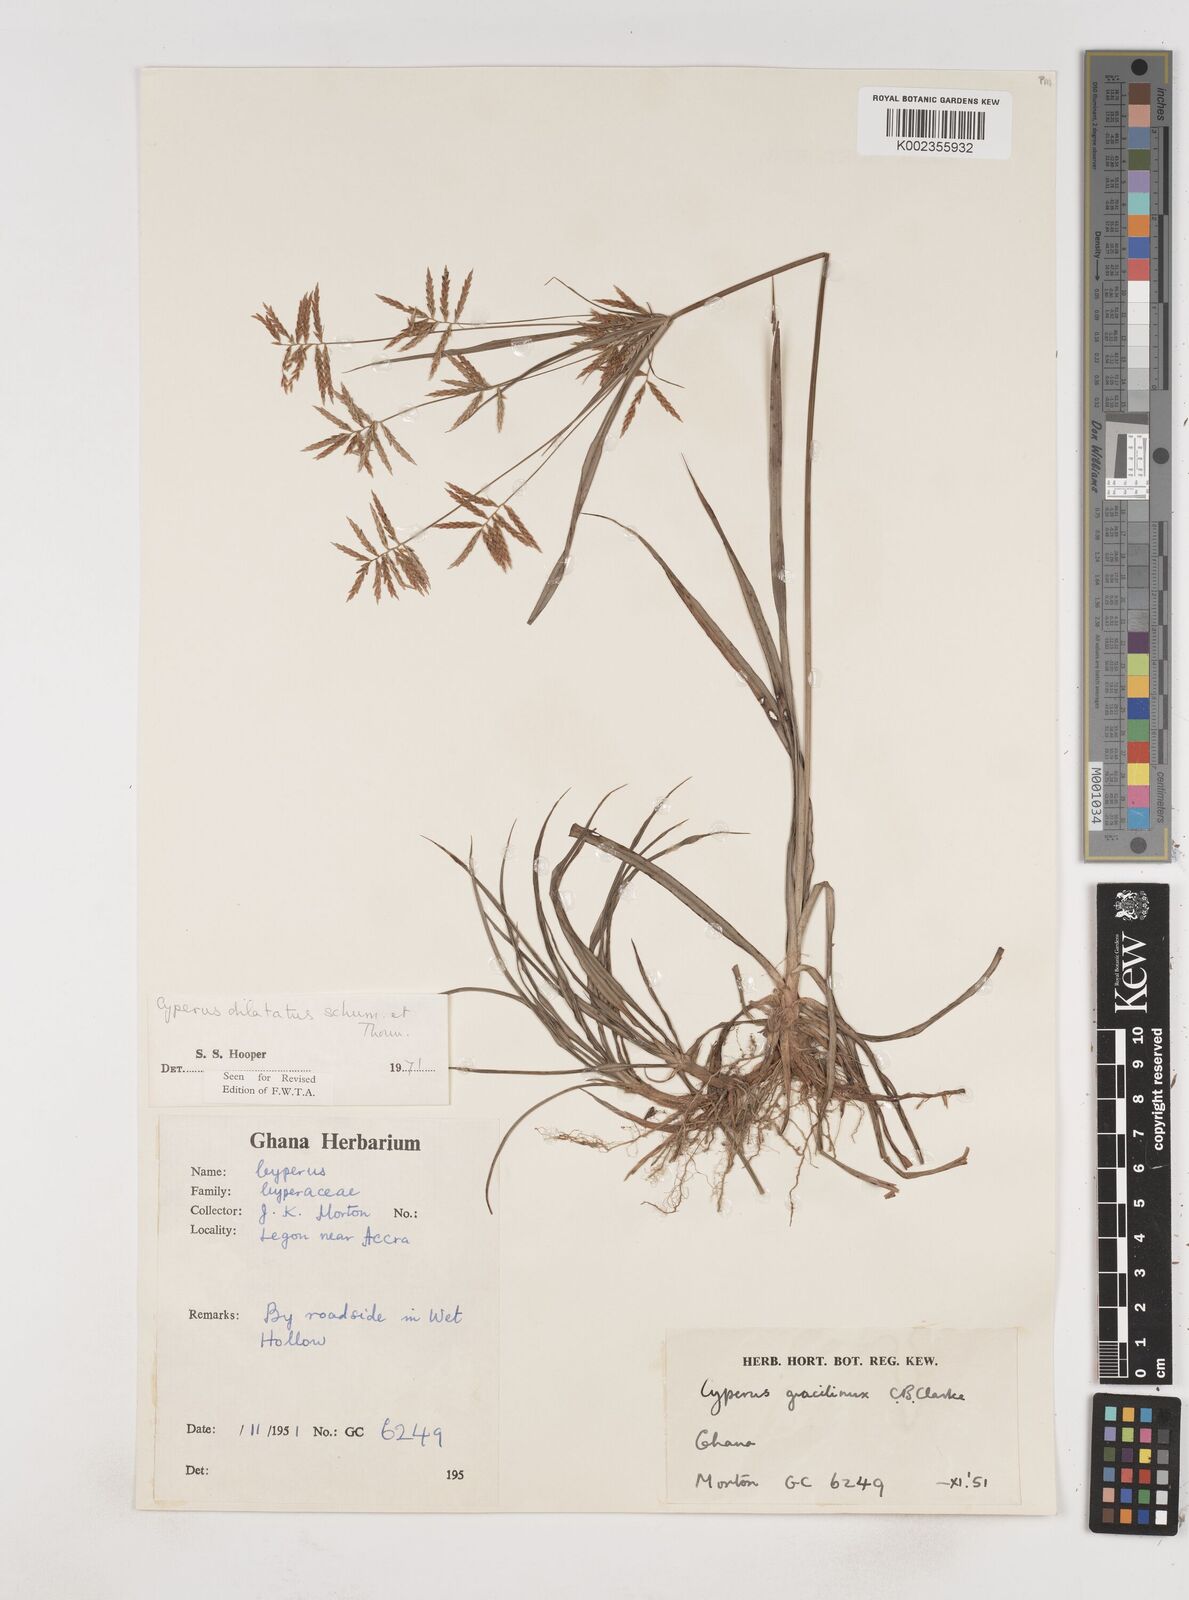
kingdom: Plantae
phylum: Tracheophyta
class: Liliopsida
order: Poales
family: Cyperaceae
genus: Cyperus
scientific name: Cyperus dilatatus
